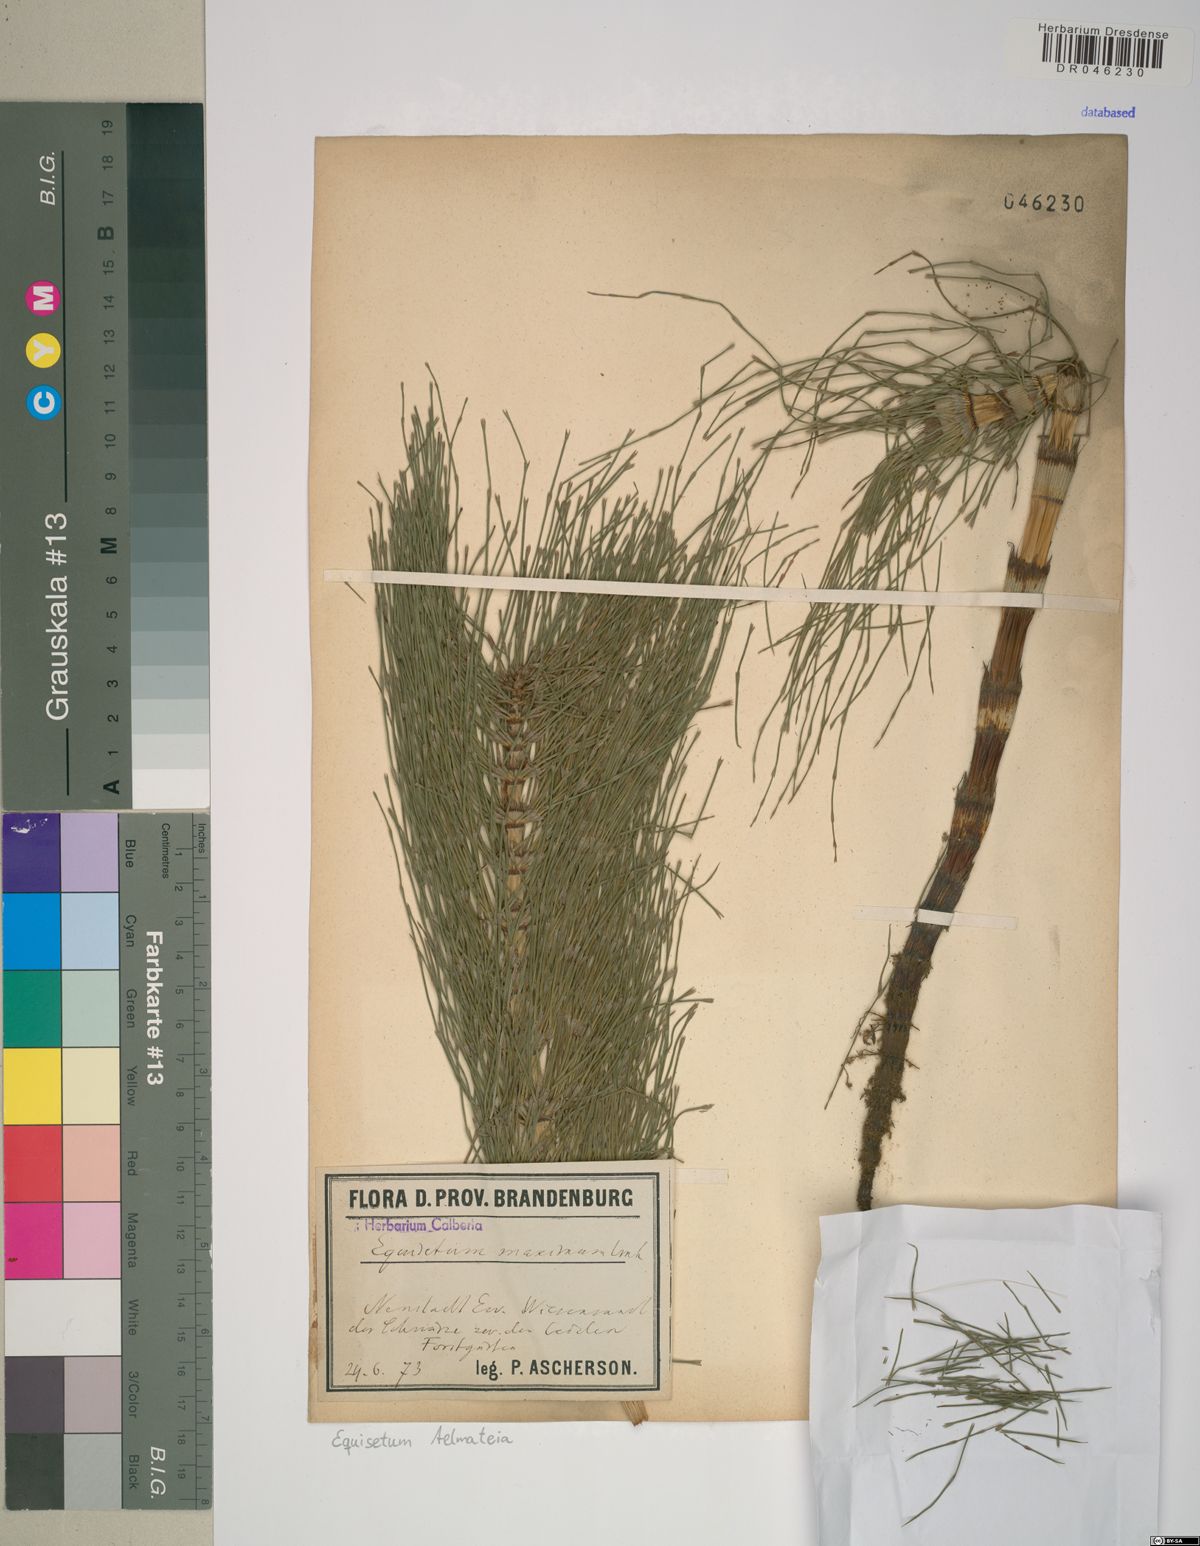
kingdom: Plantae
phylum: Tracheophyta
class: Polypodiopsida
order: Equisetales
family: Equisetaceae
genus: Equisetum
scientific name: Equisetum telmateia
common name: Great horsetail
